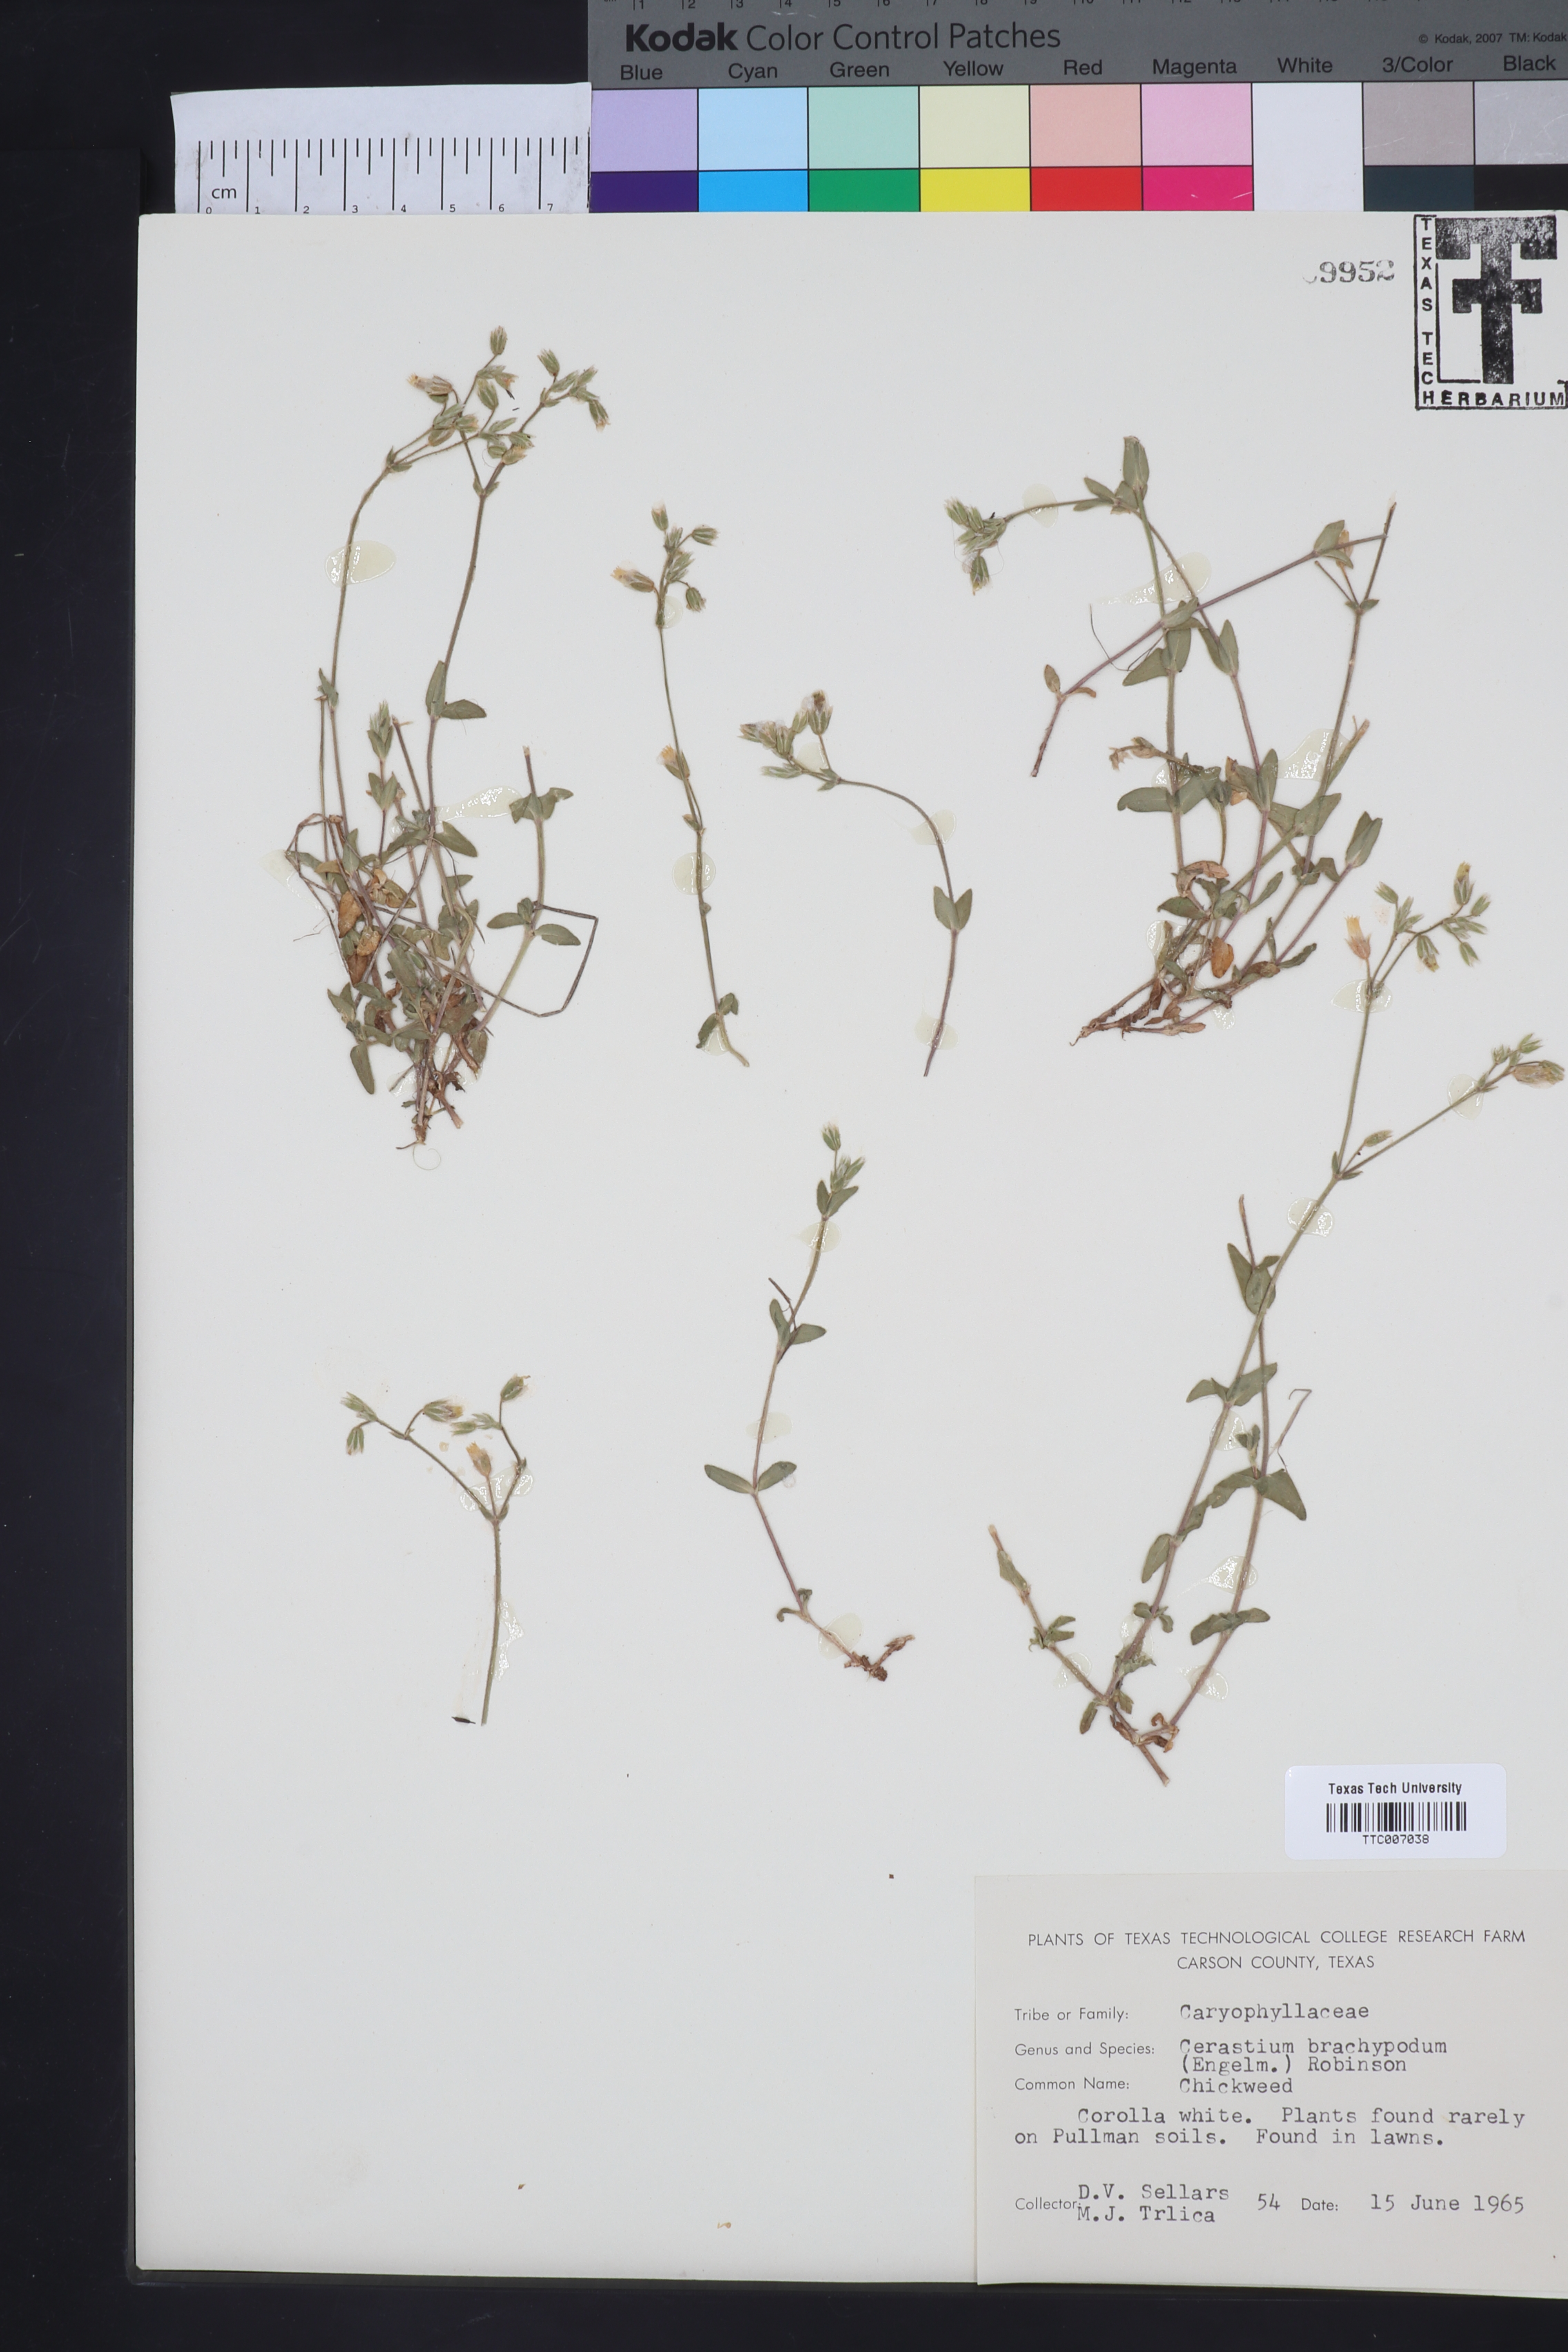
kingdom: Plantae
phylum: Tracheophyta
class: Magnoliopsida
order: Caryophyllales
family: Caryophyllaceae
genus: Cerastium
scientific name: Cerastium brachypodum
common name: Short-pedicelled nodding chickweed
